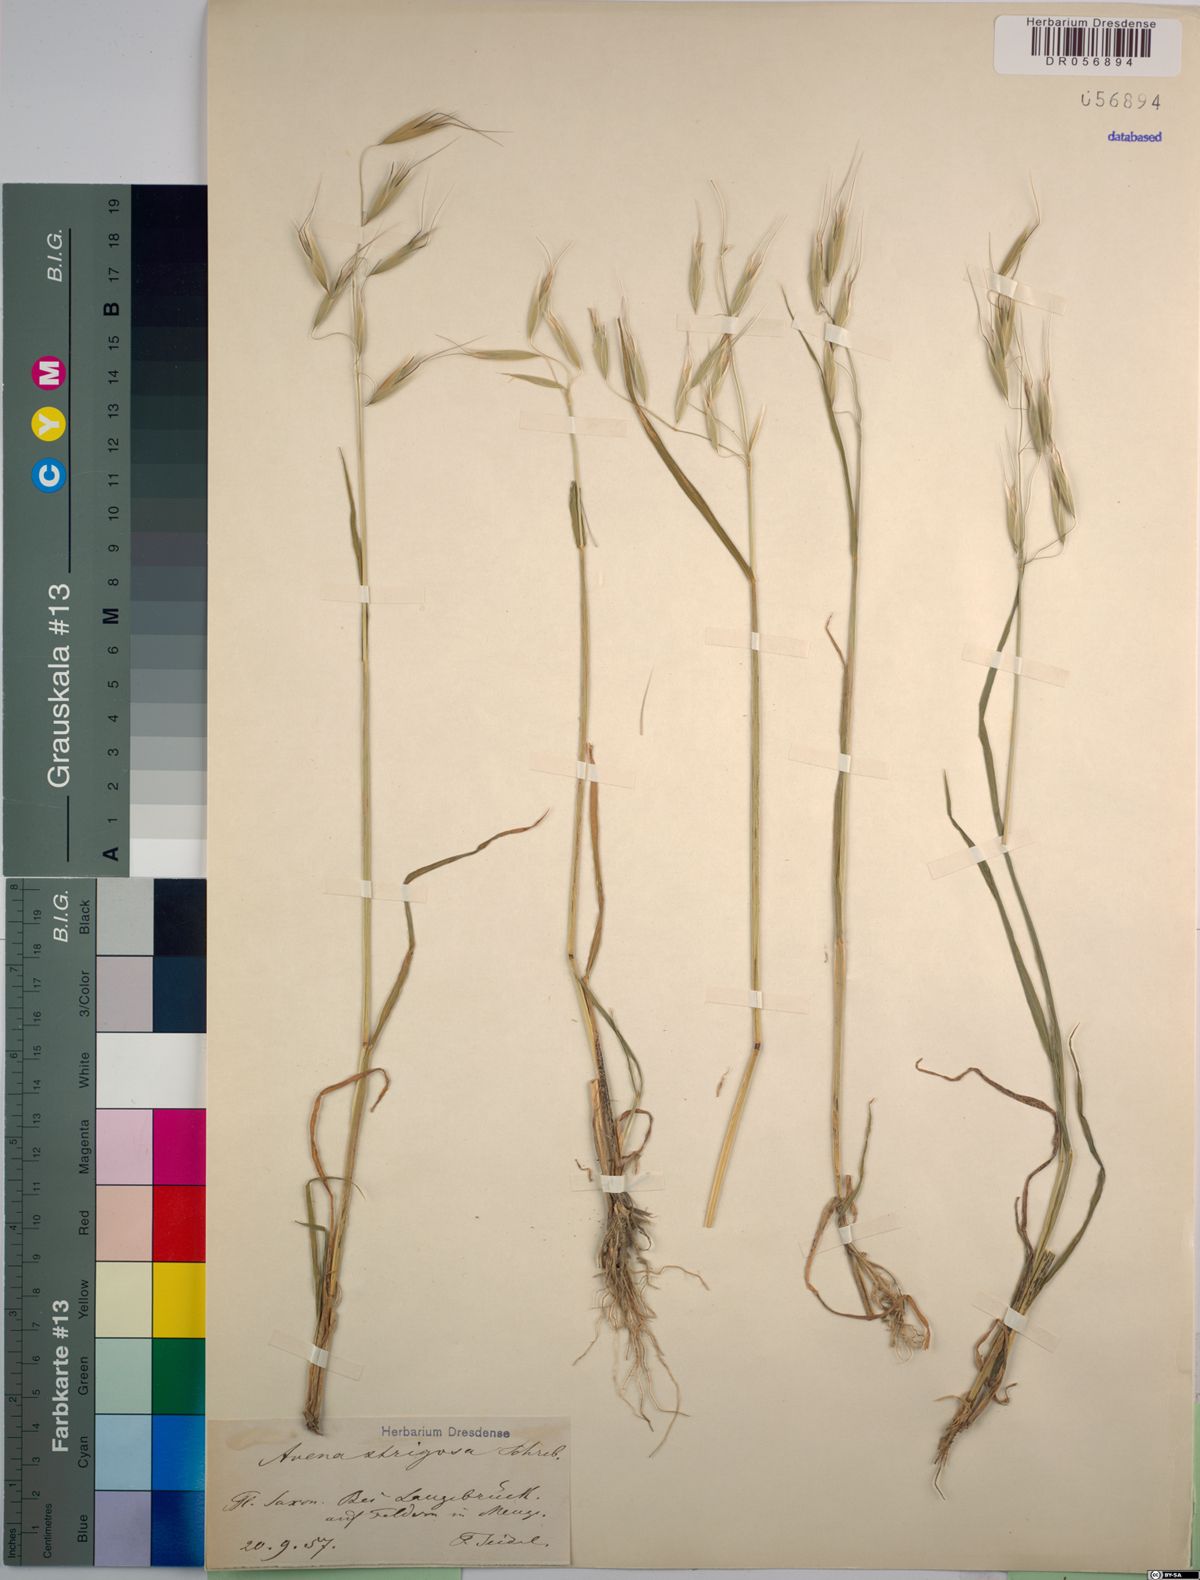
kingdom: Plantae
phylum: Tracheophyta
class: Liliopsida
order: Poales
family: Poaceae
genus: Avena
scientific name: Avena strigosa
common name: Bristle oat
